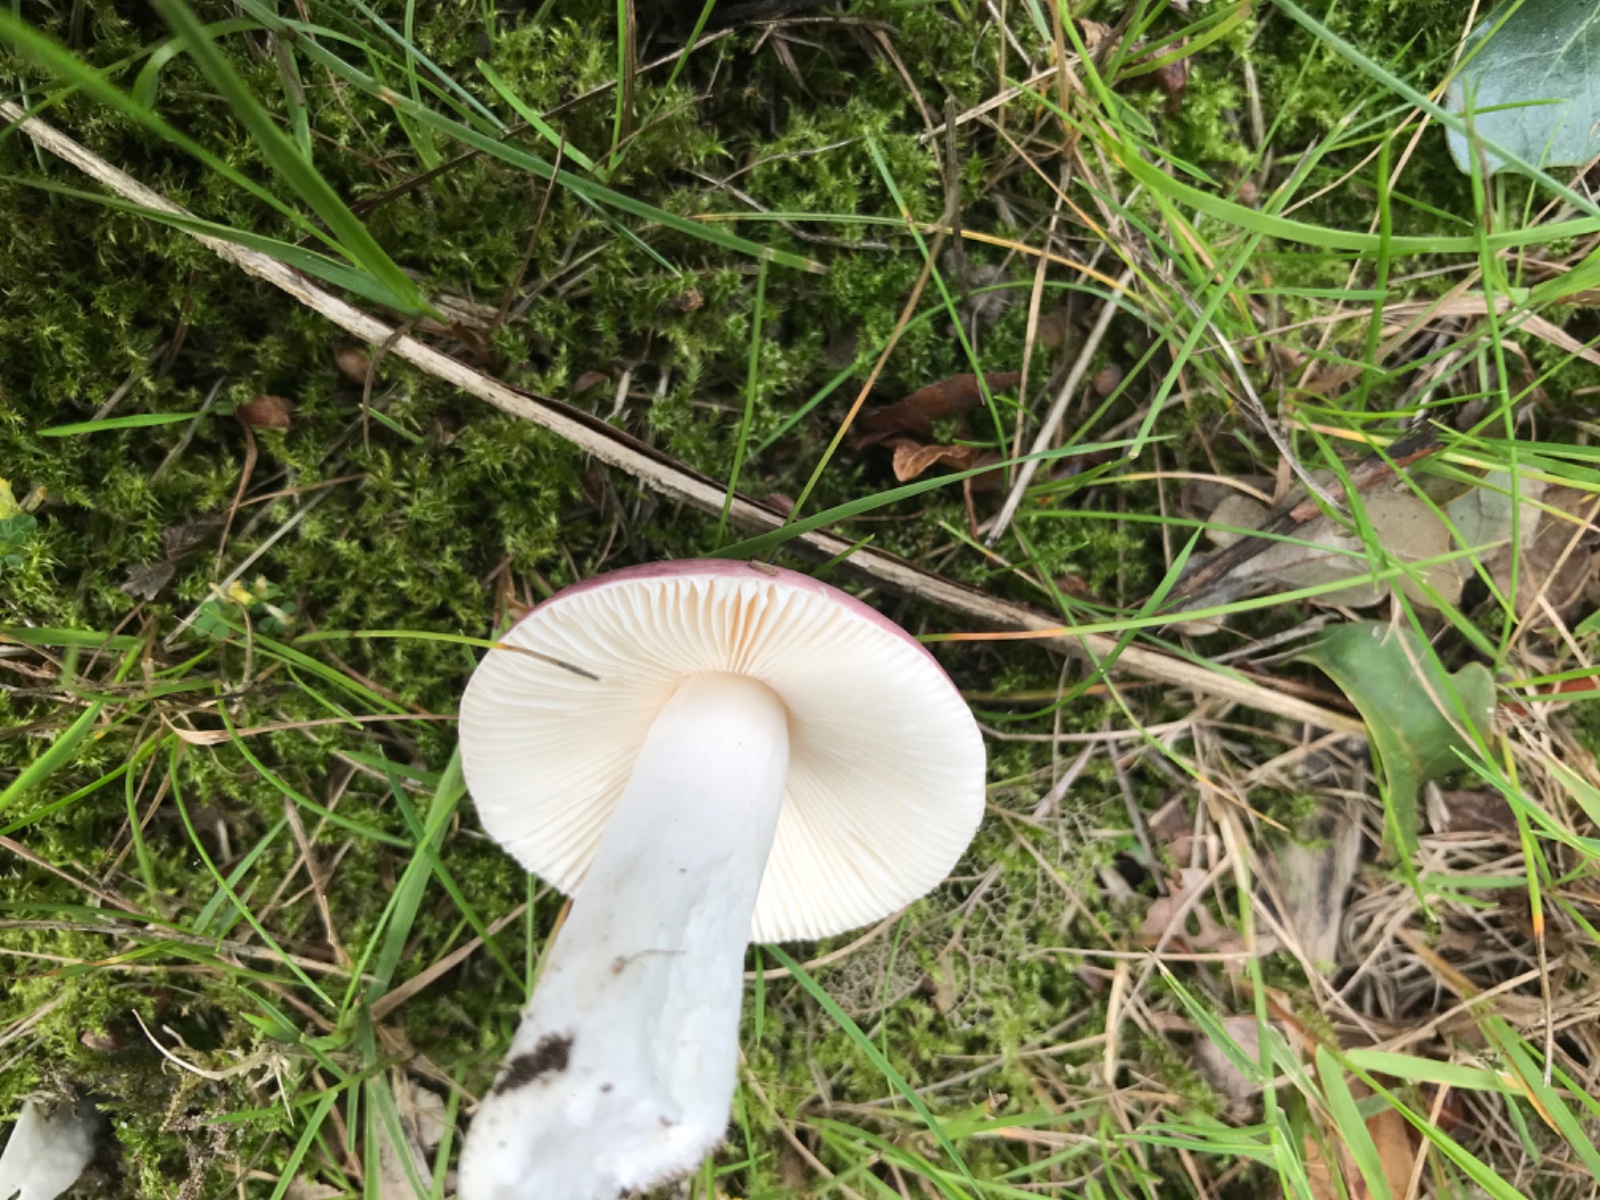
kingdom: Fungi
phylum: Basidiomycota
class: Agaricomycetes
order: Russulales
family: Russulaceae
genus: Russula
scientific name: Russula fragilis
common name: savbladet skørhat
